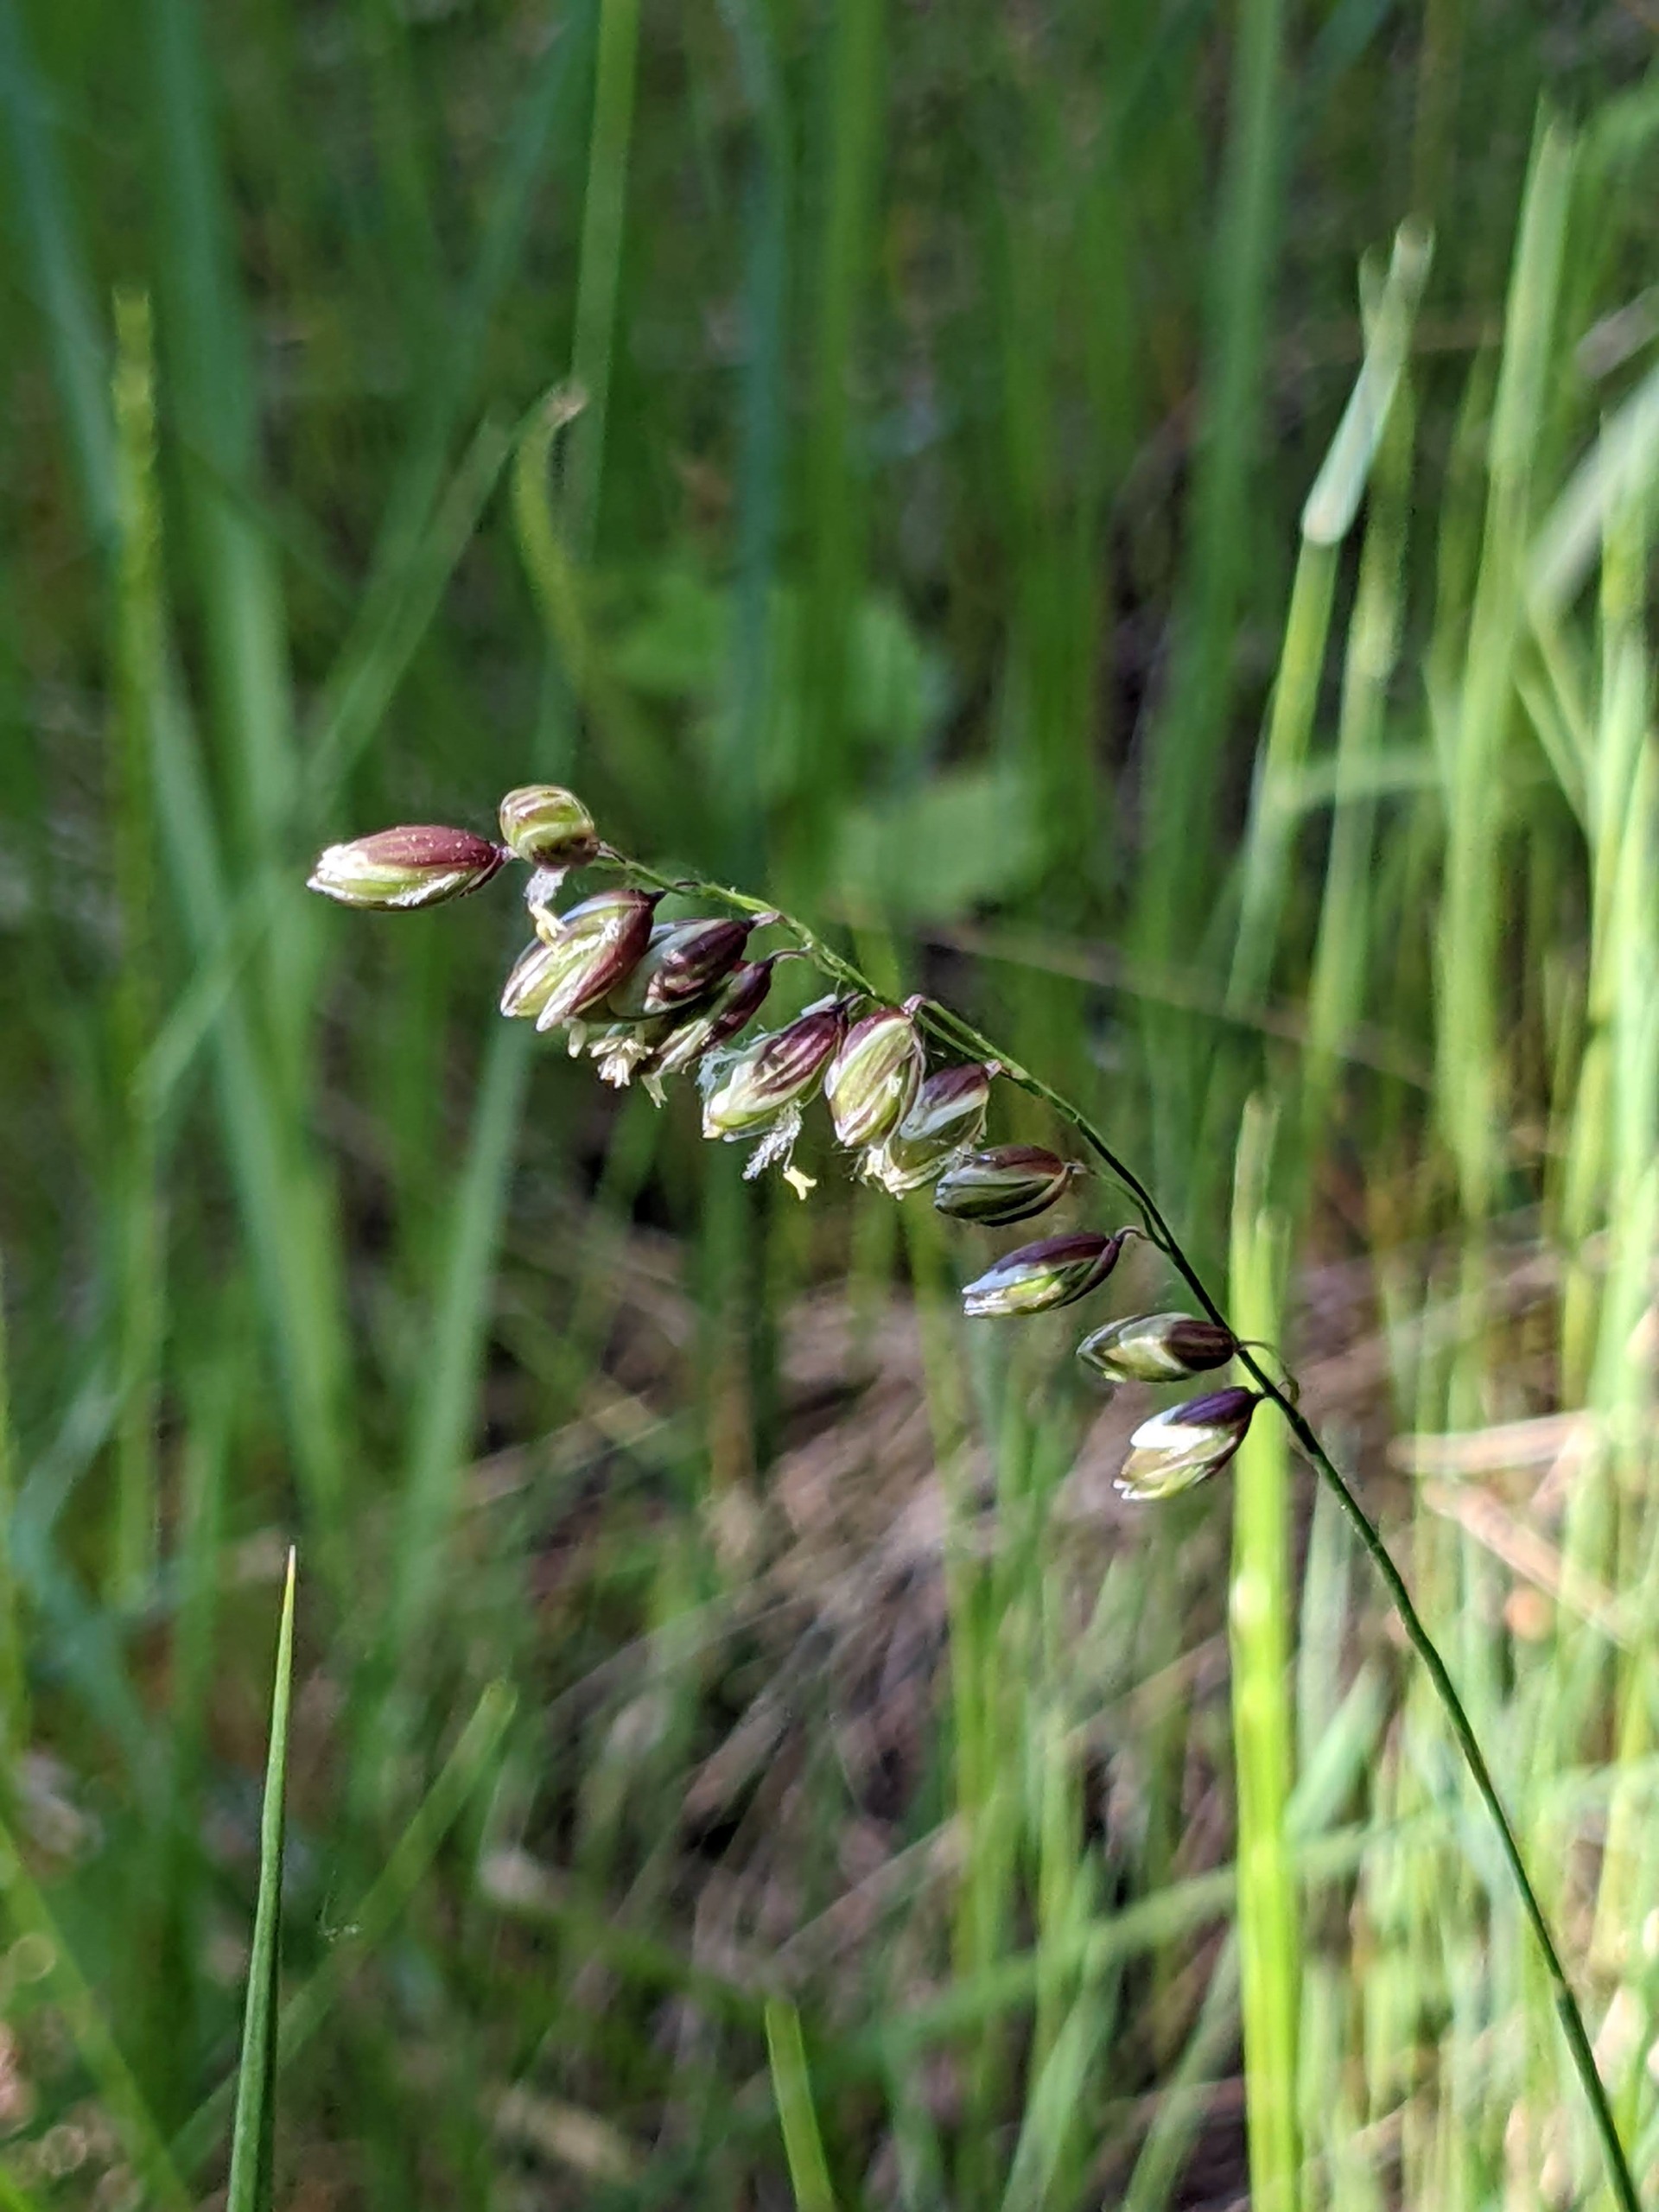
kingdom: Plantae
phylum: Tracheophyta
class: Liliopsida
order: Poales
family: Poaceae
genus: Melica
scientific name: Melica nutans
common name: Nikkende flitteraks
